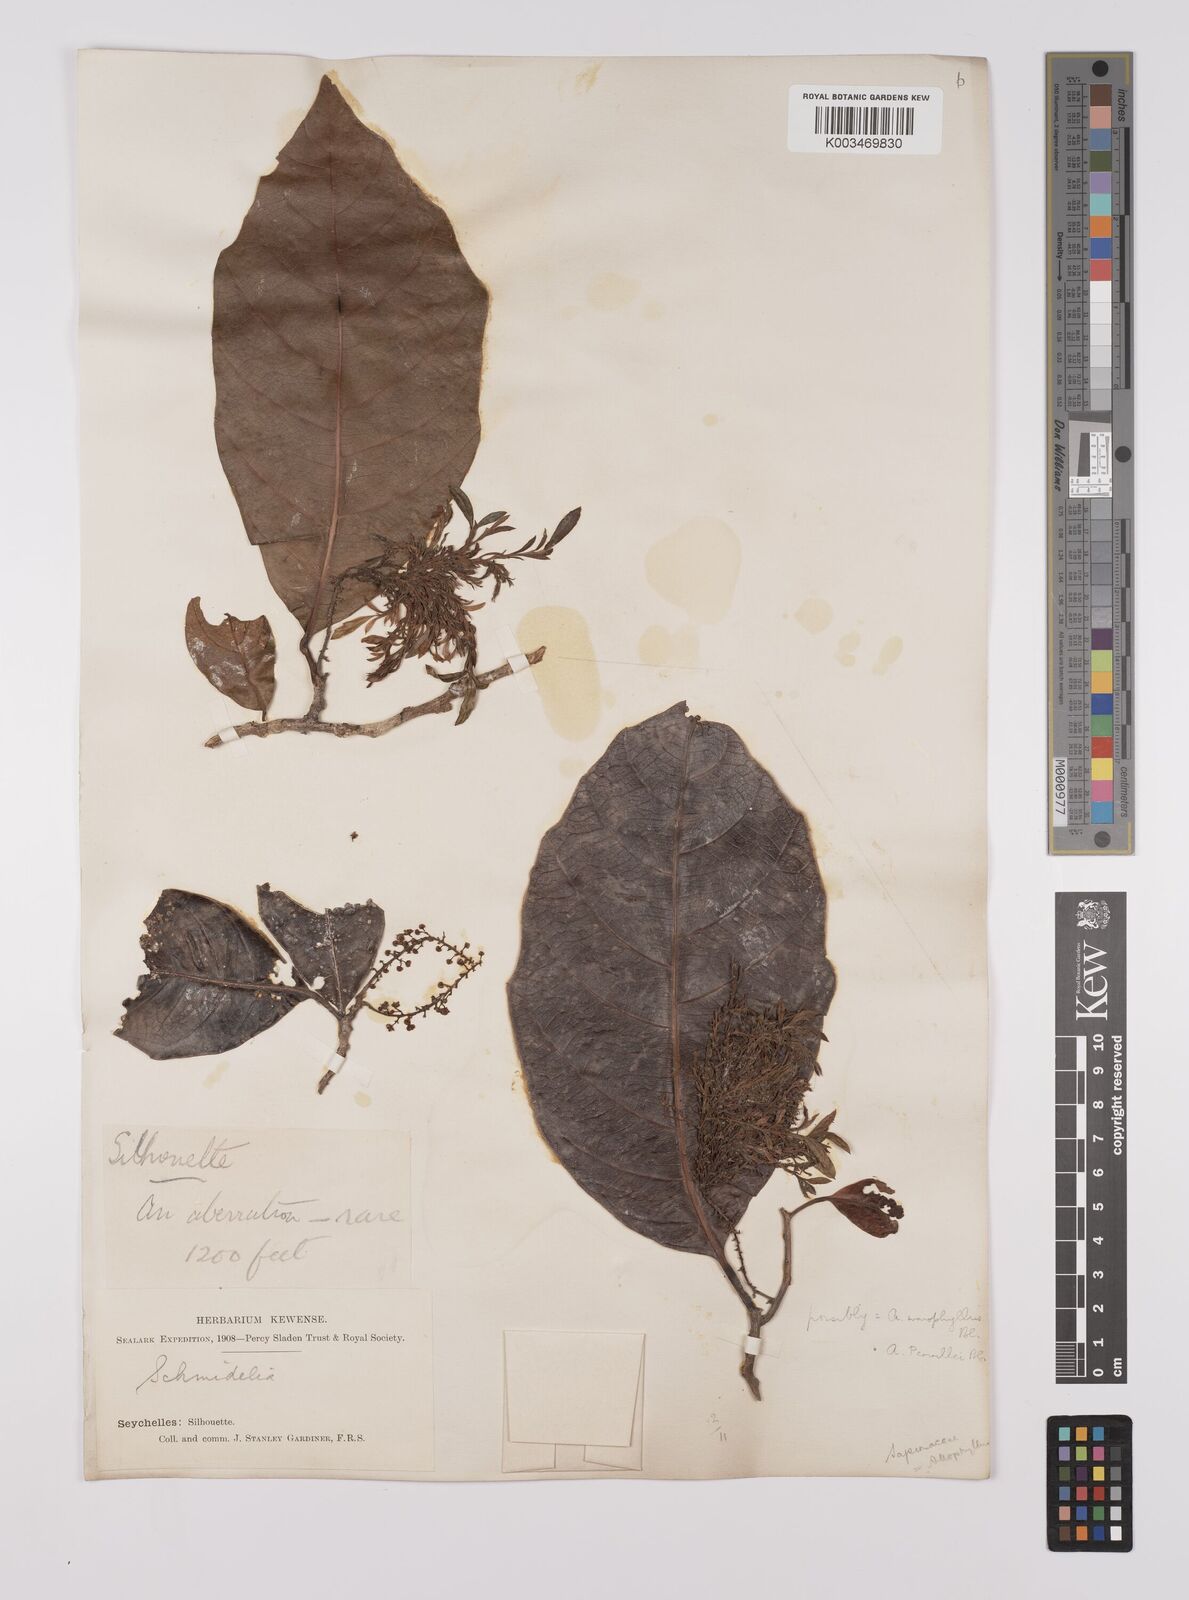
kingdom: Plantae
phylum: Tracheophyta
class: Magnoliopsida
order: Sapindales
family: Sapindaceae
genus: Allophylus
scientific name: Allophylus pervillei
